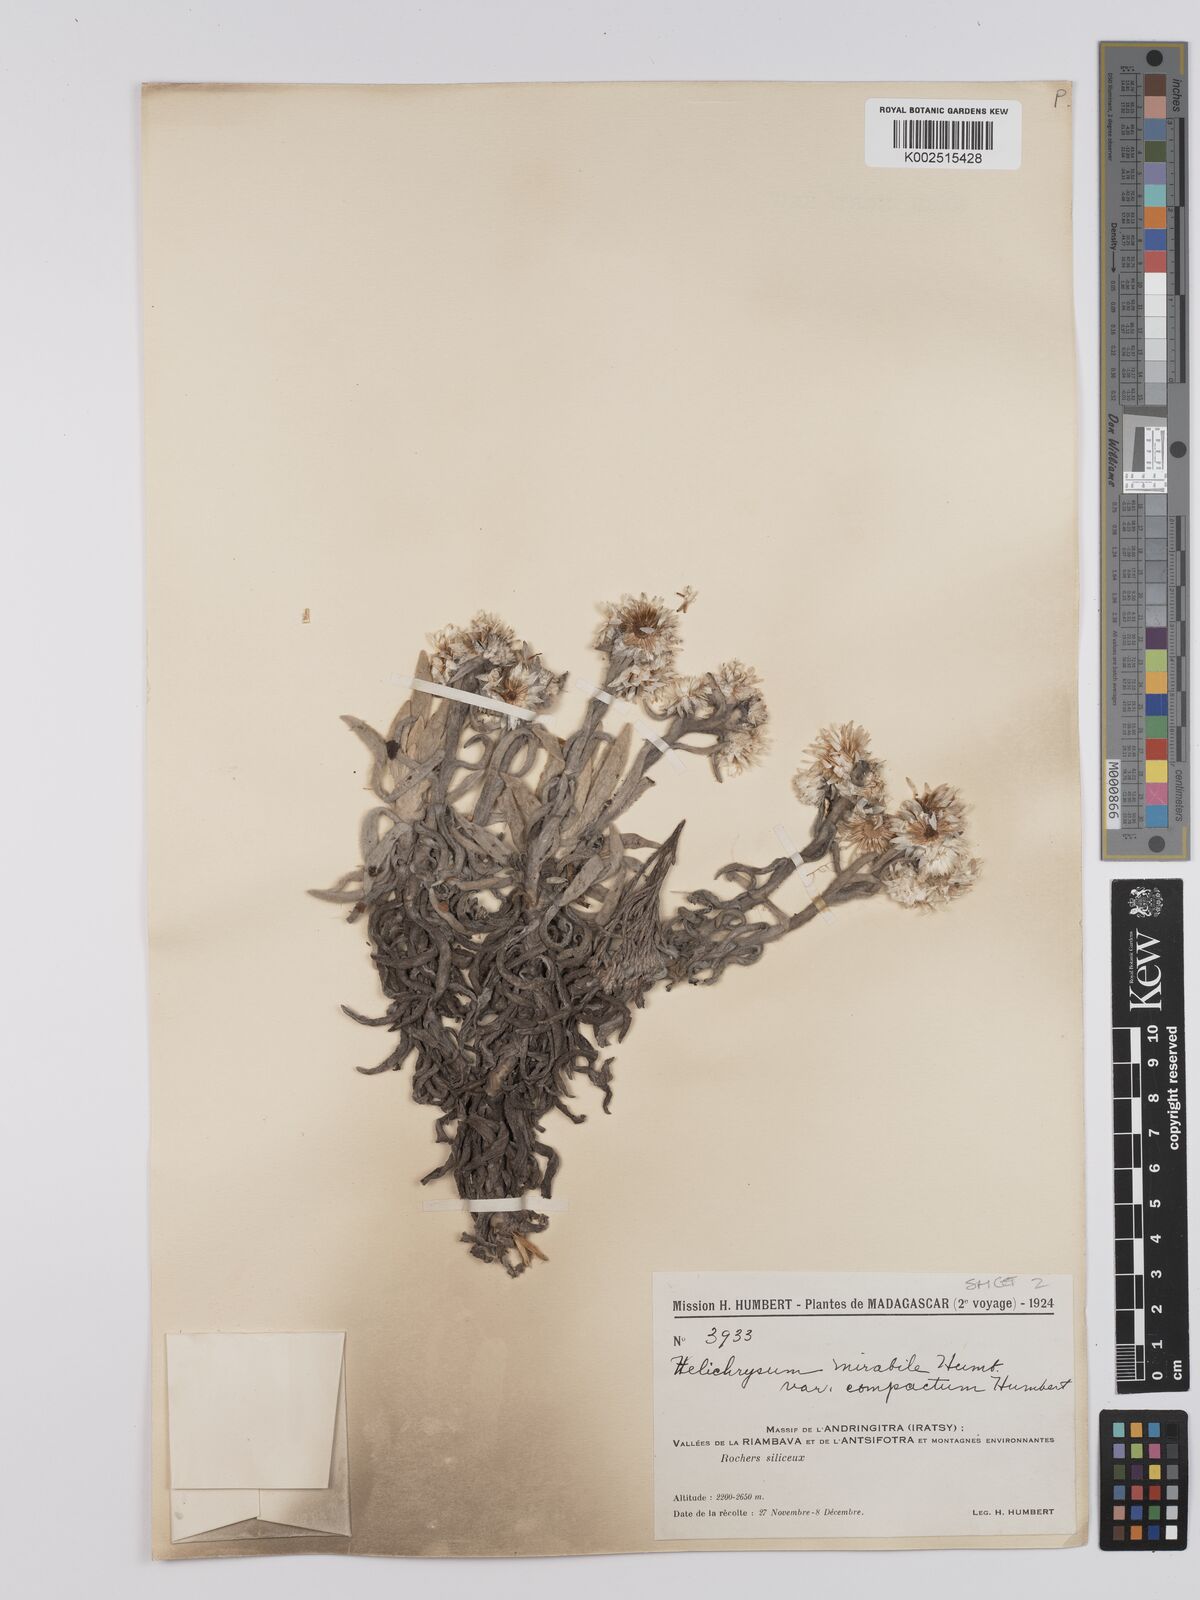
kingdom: Plantae
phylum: Tracheophyta
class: Magnoliopsida
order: Asterales
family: Asteraceae
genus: Helichrysum
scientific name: Helichrysum mirabile
